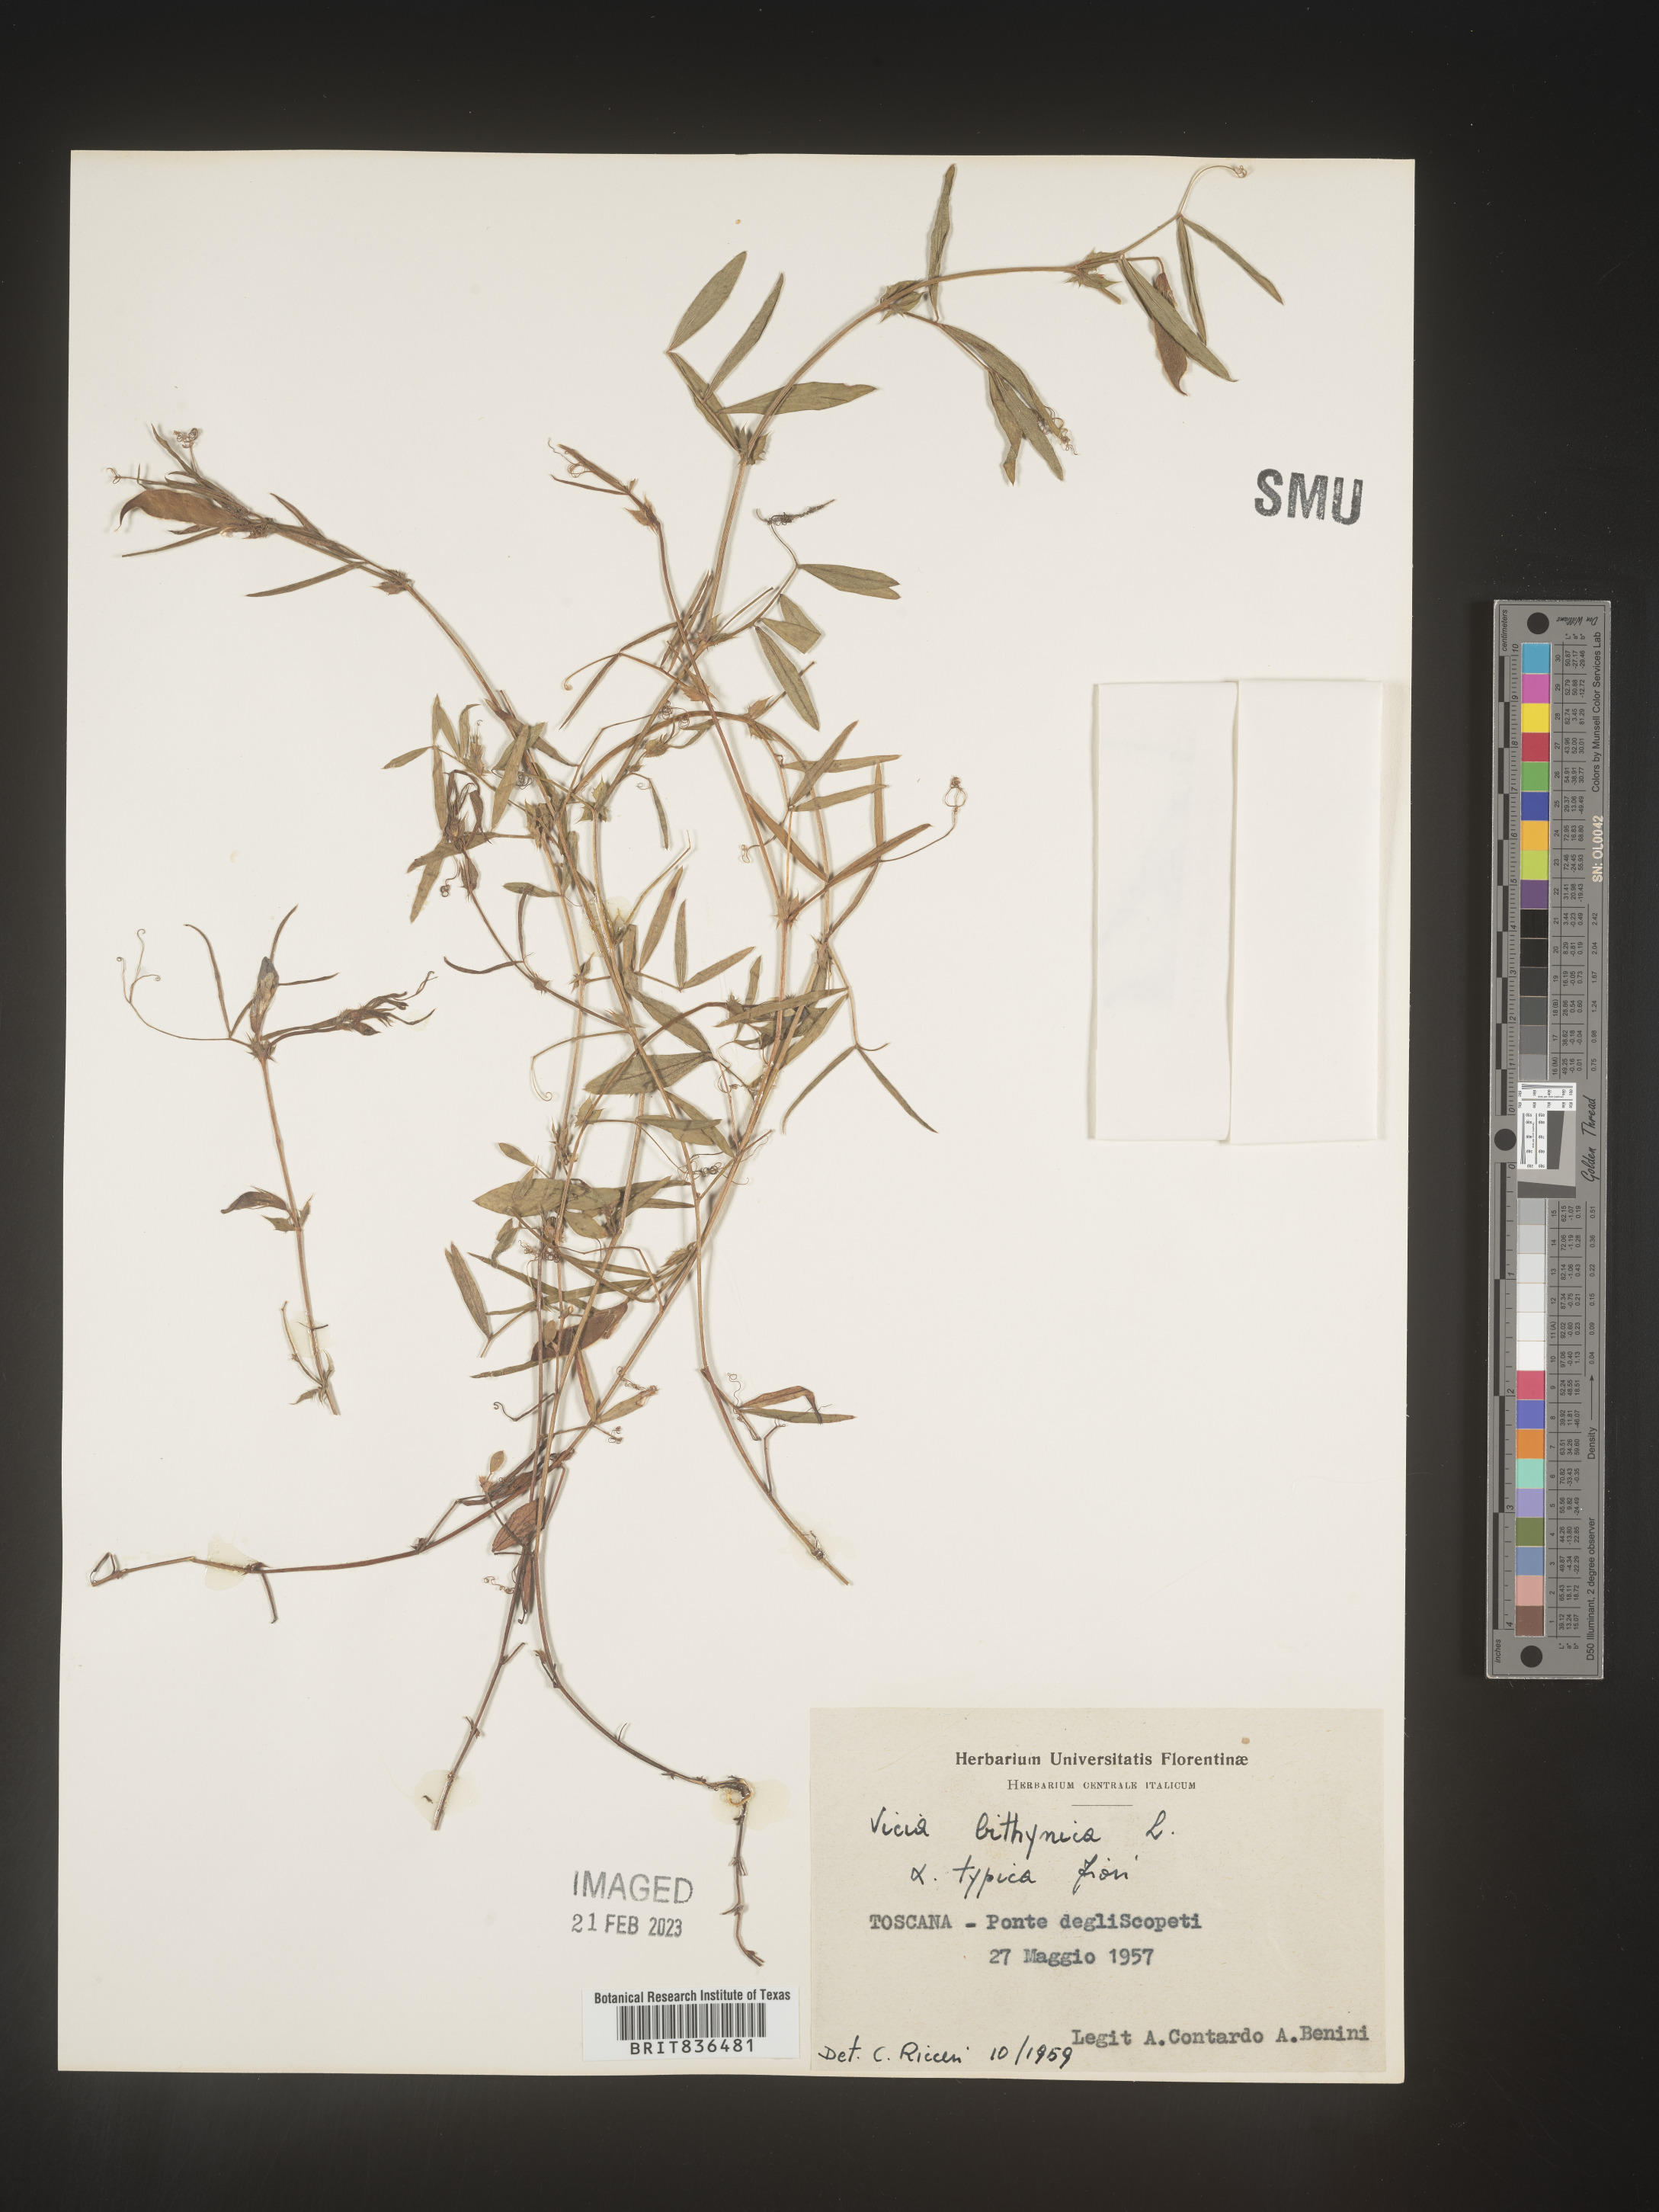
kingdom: Plantae
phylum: Tracheophyta
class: Magnoliopsida
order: Fabales
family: Fabaceae
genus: Vicia
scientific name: Vicia
